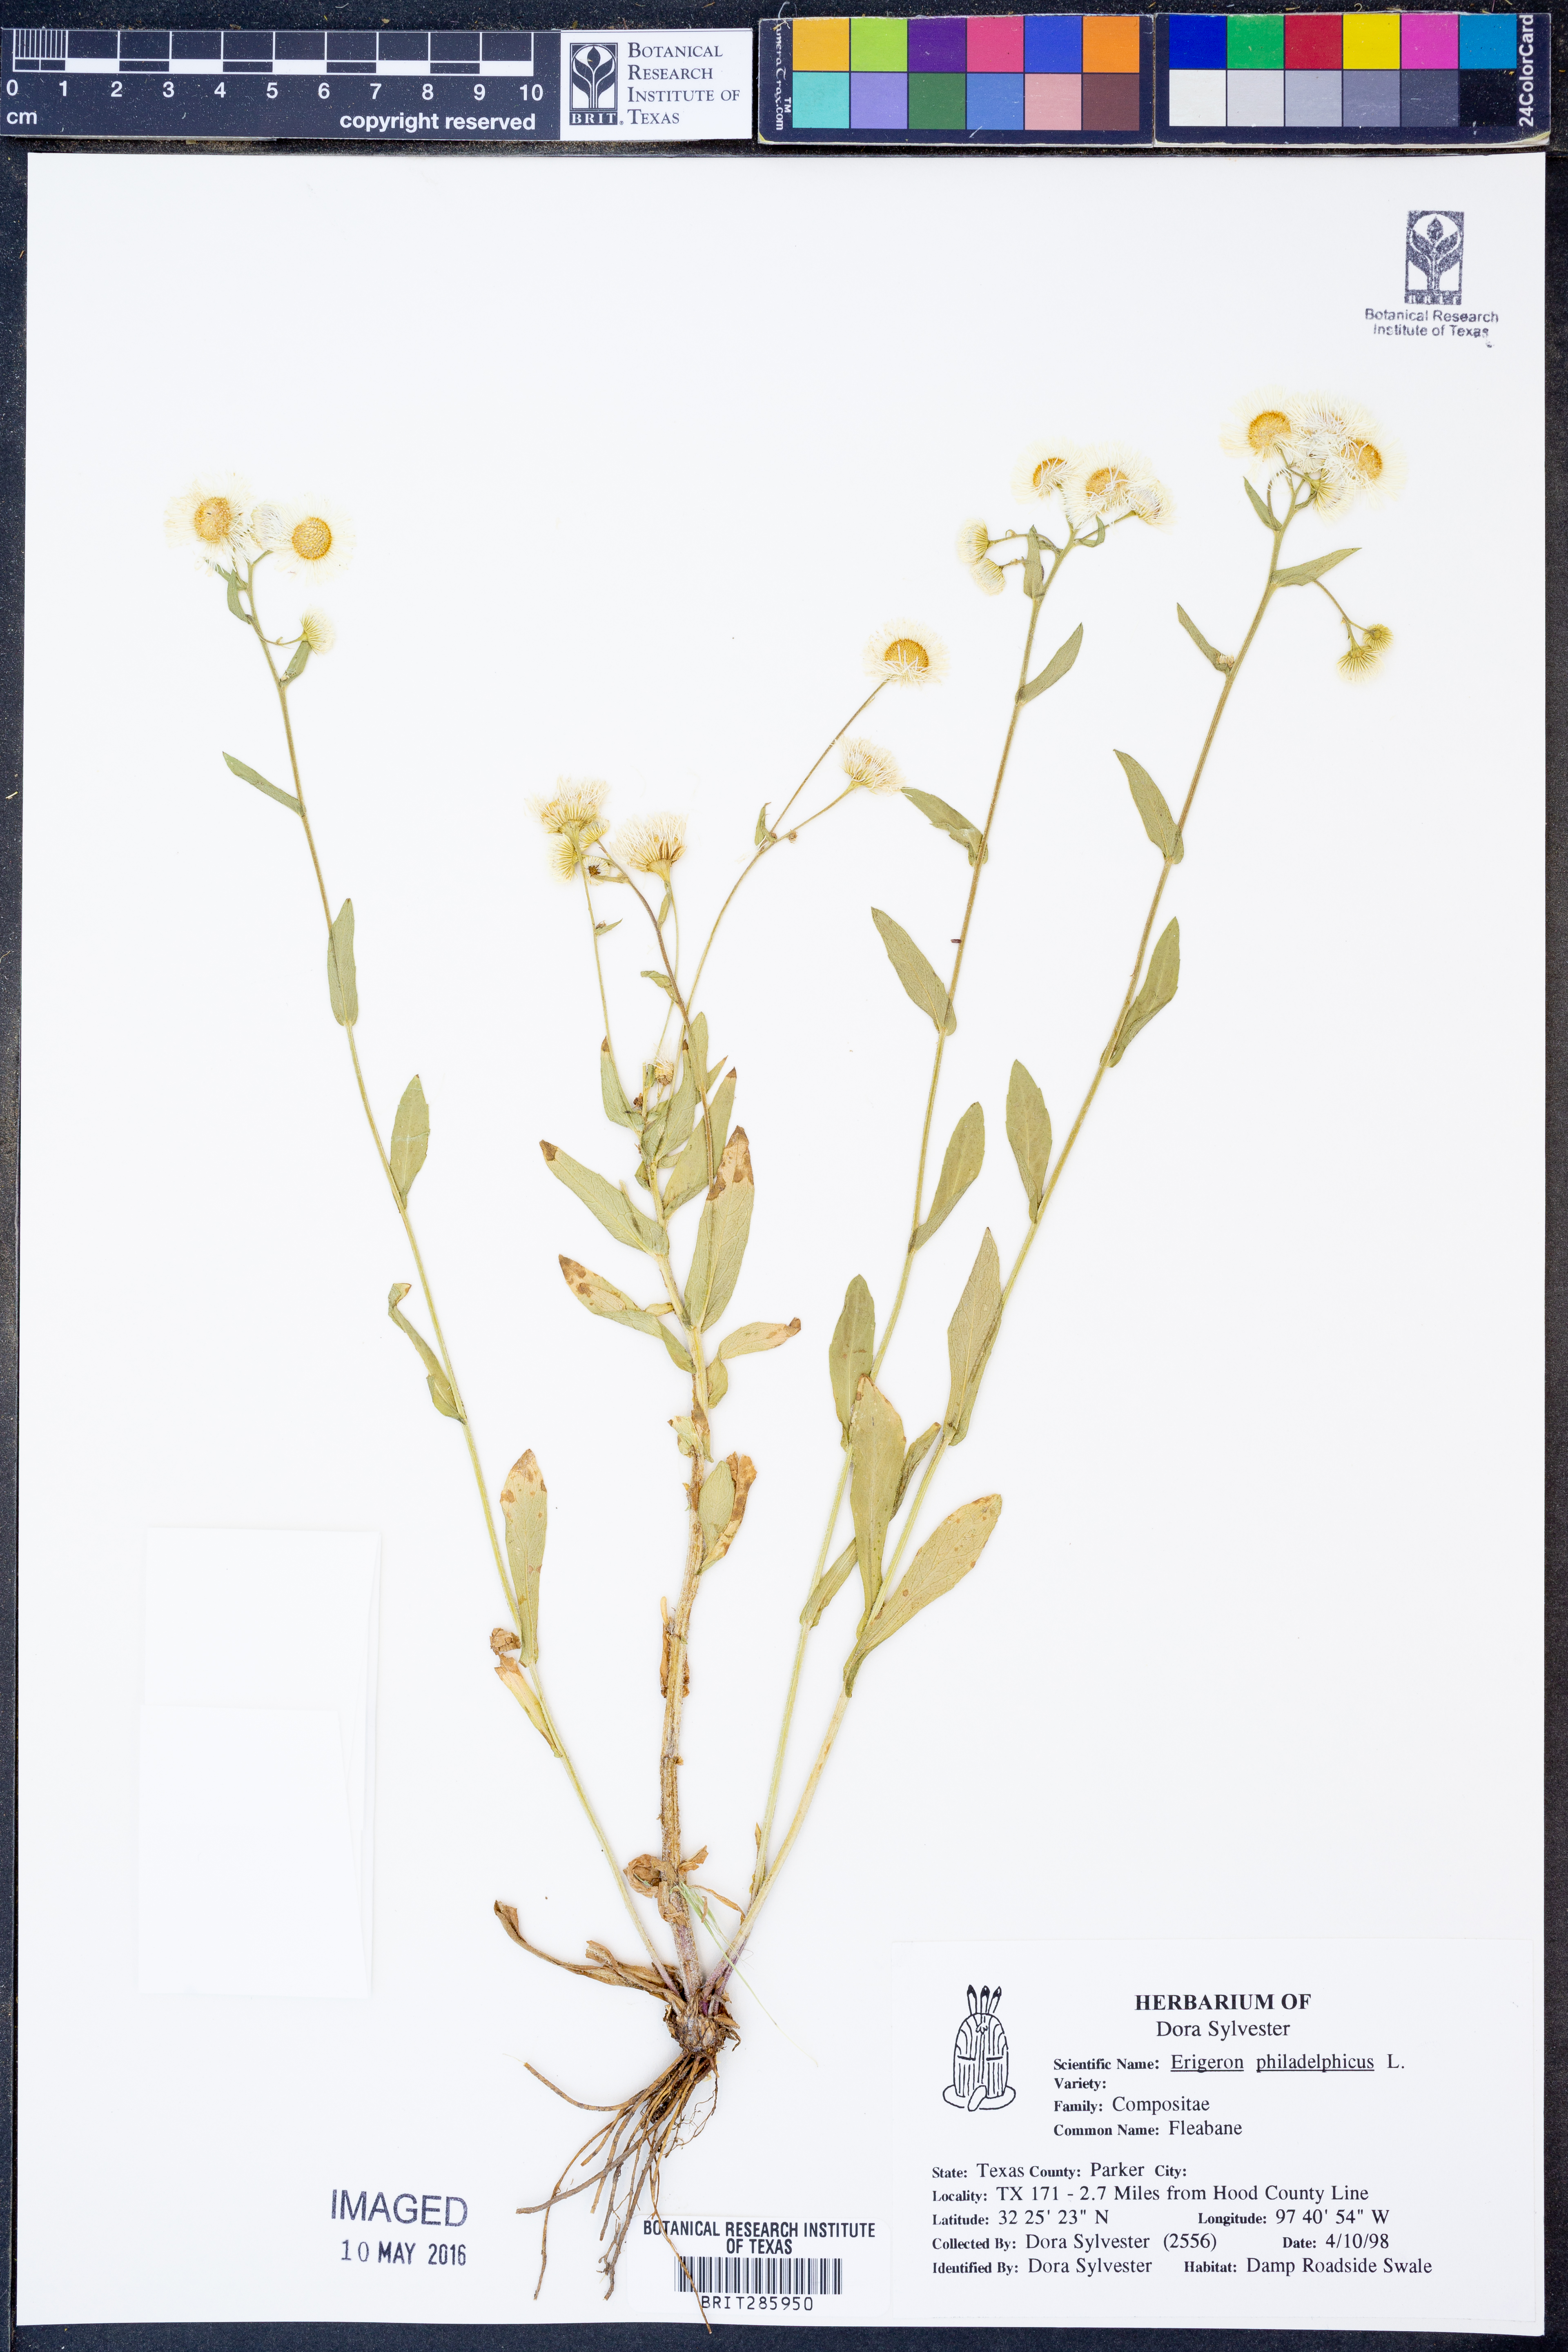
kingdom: Plantae
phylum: Tracheophyta
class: Magnoliopsida
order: Asterales
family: Asteraceae
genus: Erigeron
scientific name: Erigeron philadelphicus
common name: Robin's-plantain
